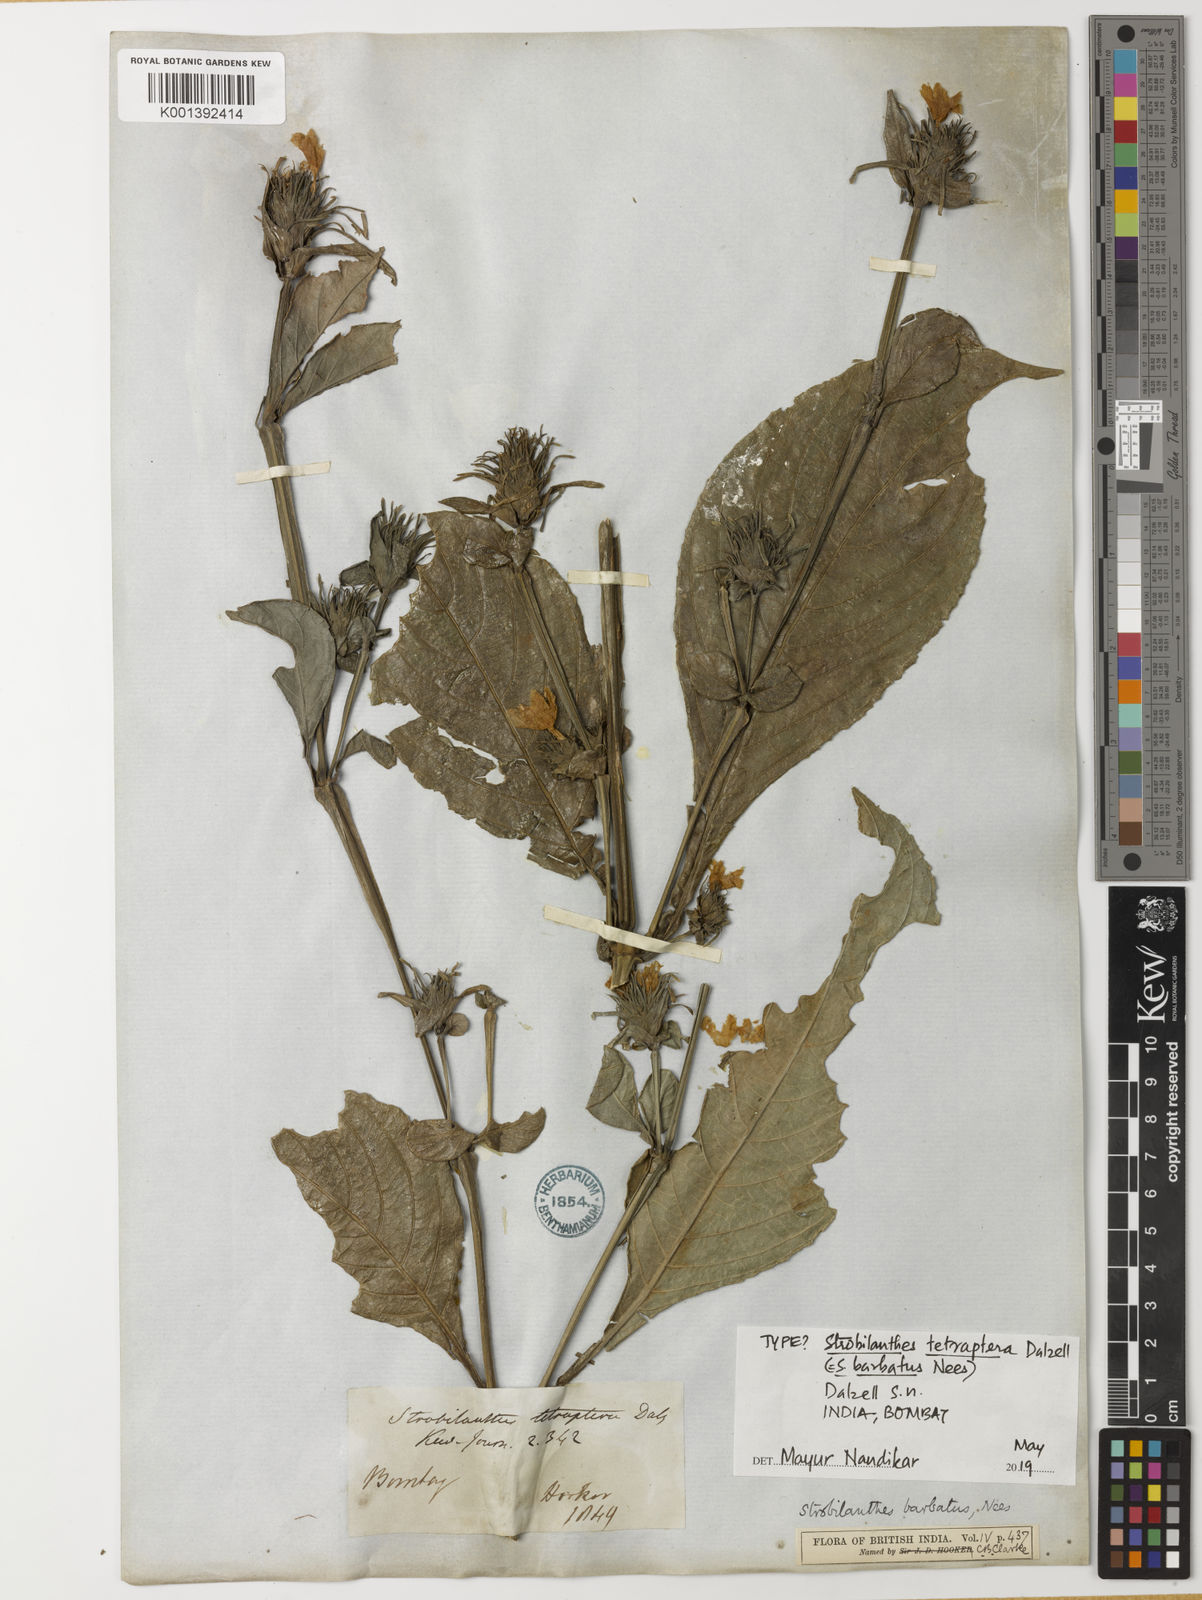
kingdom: Plantae
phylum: Tracheophyta
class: Magnoliopsida
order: Lamiales
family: Acanthaceae
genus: Strobilanthes
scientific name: Strobilanthes barbata
